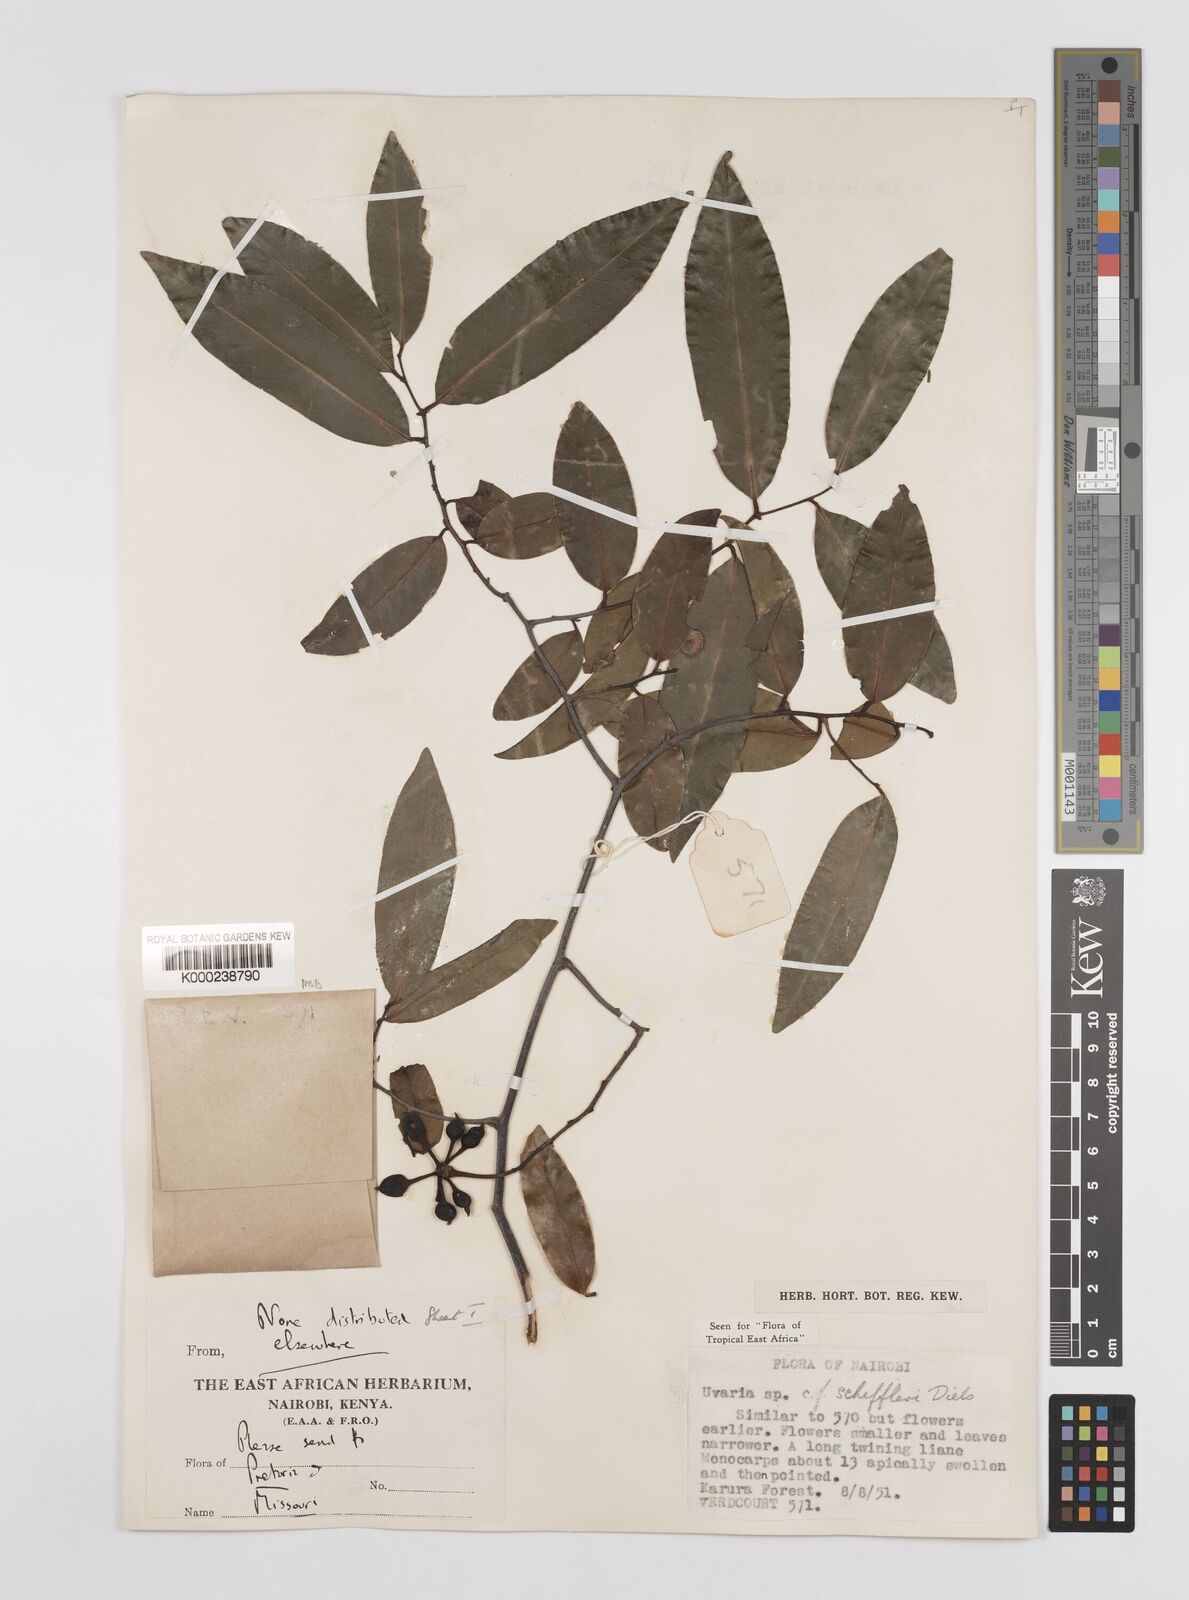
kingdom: Plantae
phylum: Tracheophyta
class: Magnoliopsida
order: Magnoliales
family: Annonaceae
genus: Uvaria
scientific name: Uvaria scheffleri
